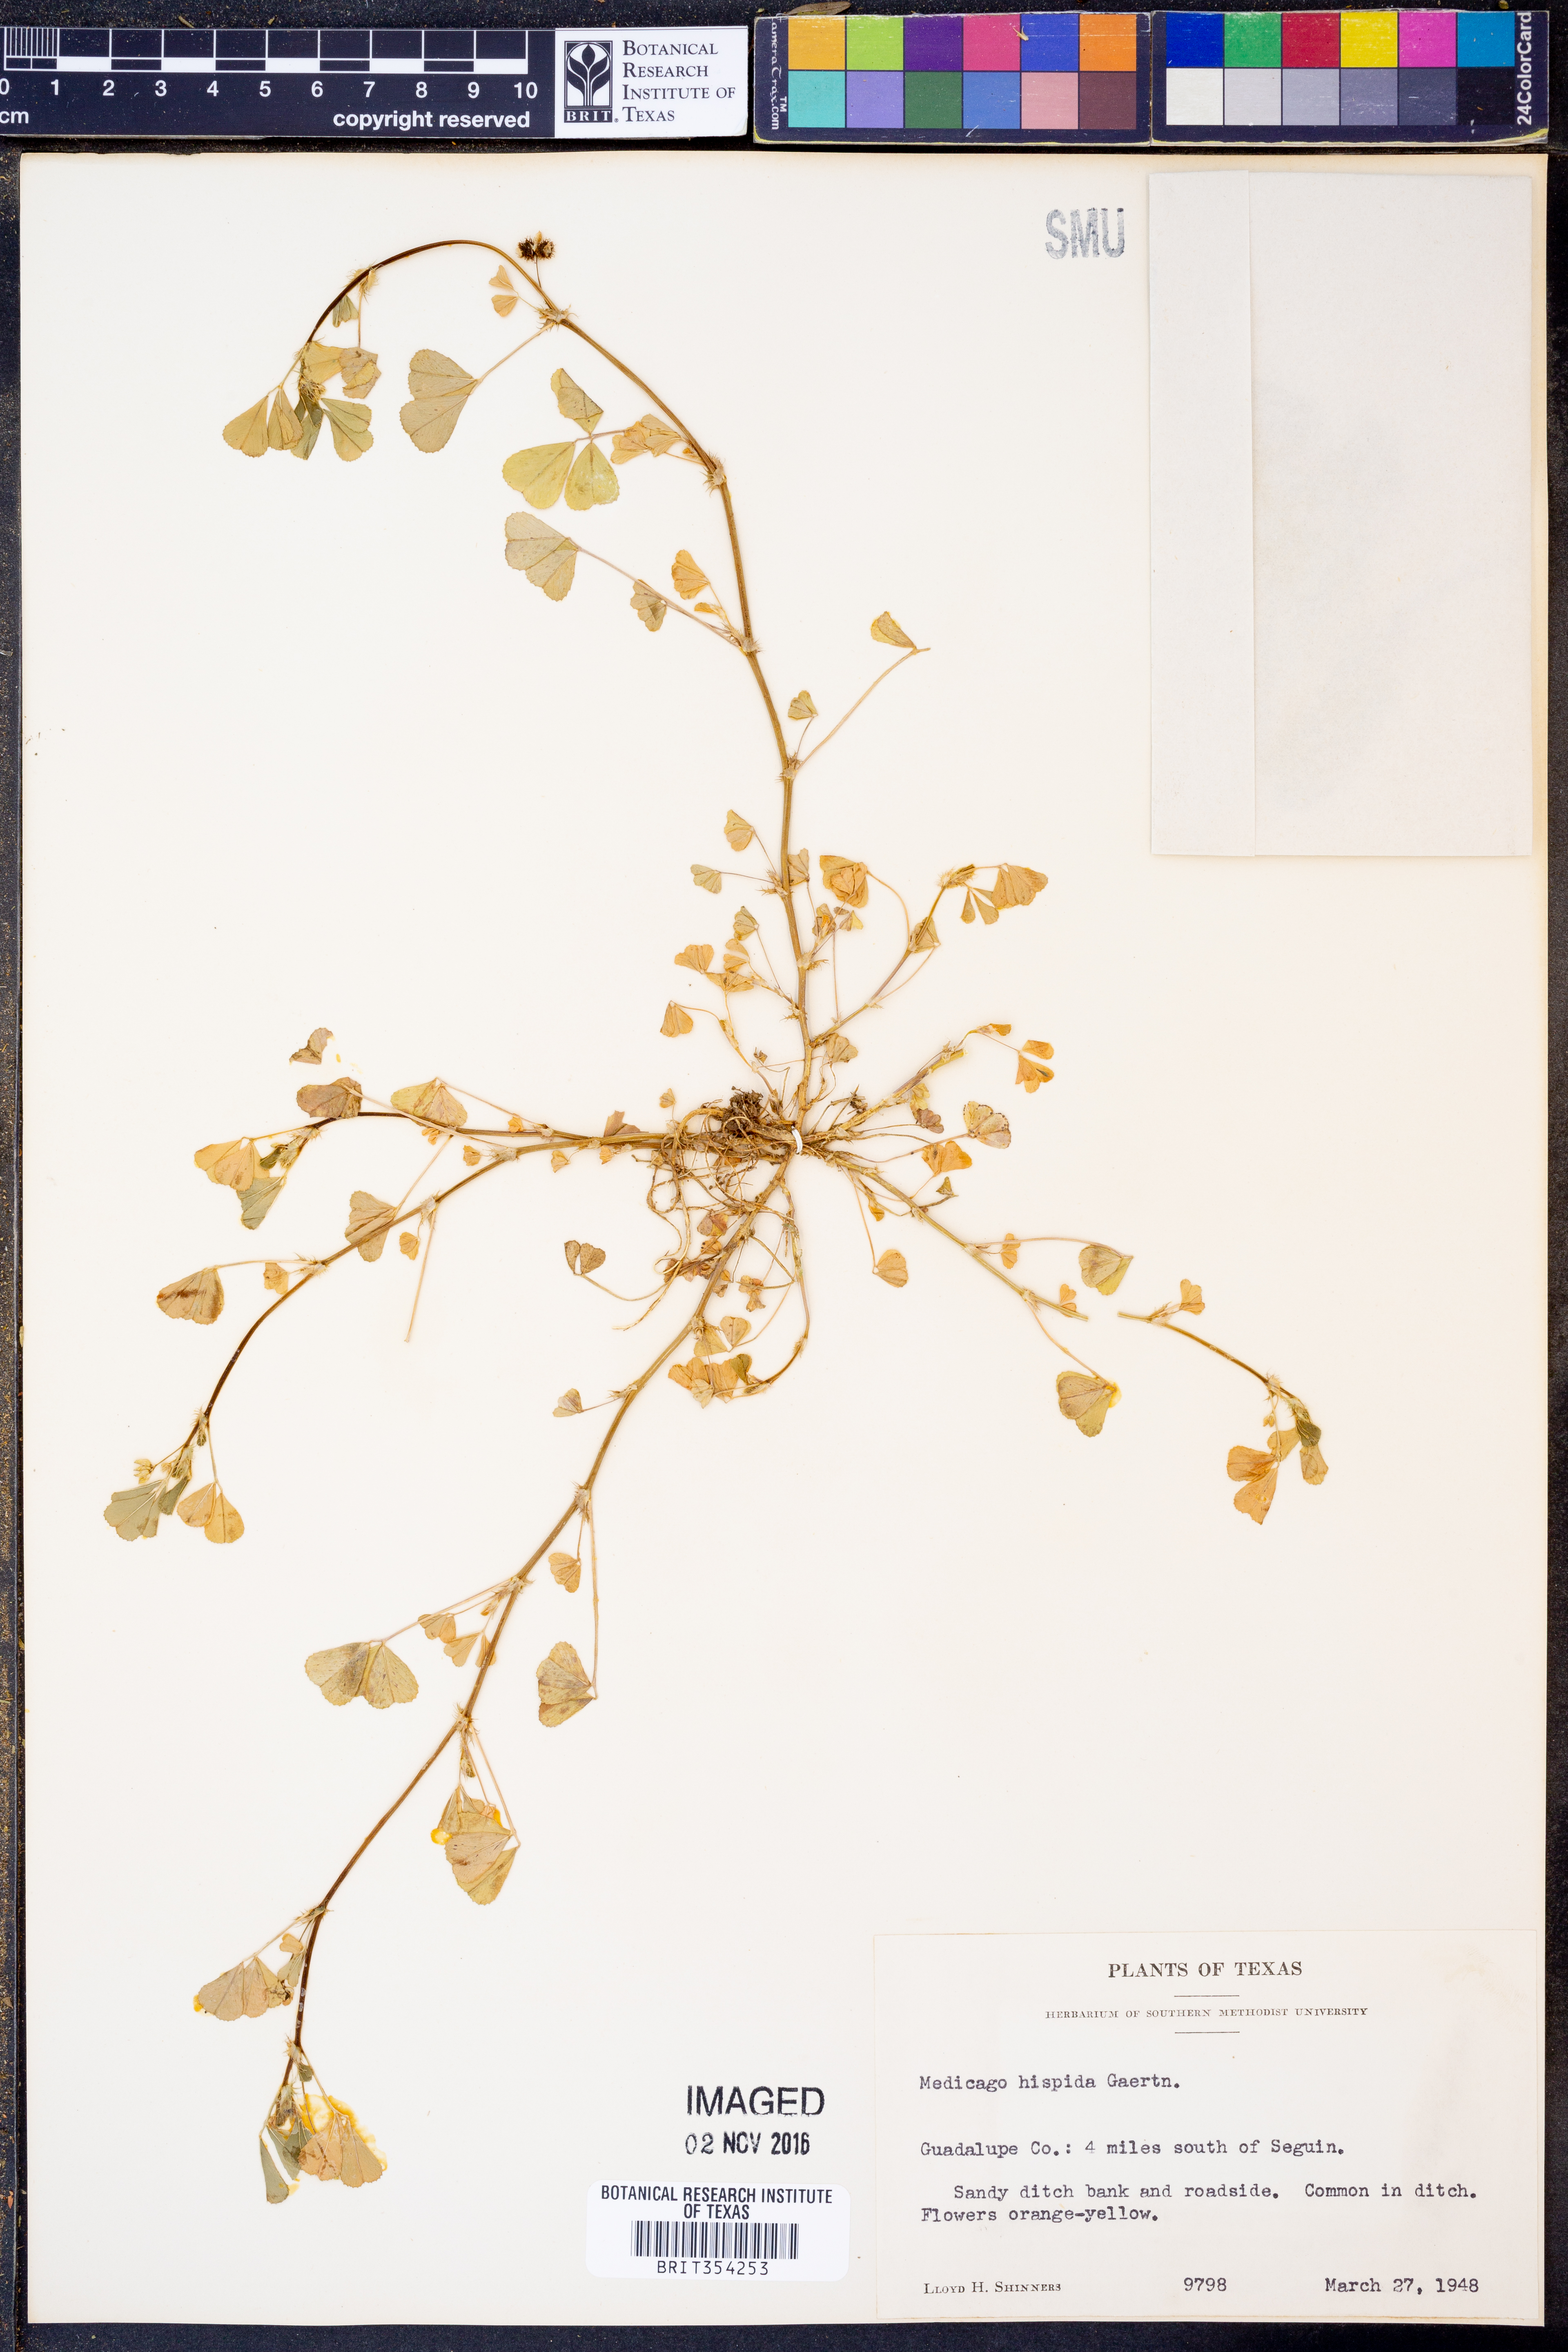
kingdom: Plantae
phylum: Tracheophyta
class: Magnoliopsida
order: Fabales
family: Fabaceae
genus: Medicago
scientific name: Medicago polymorpha
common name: Burclover
